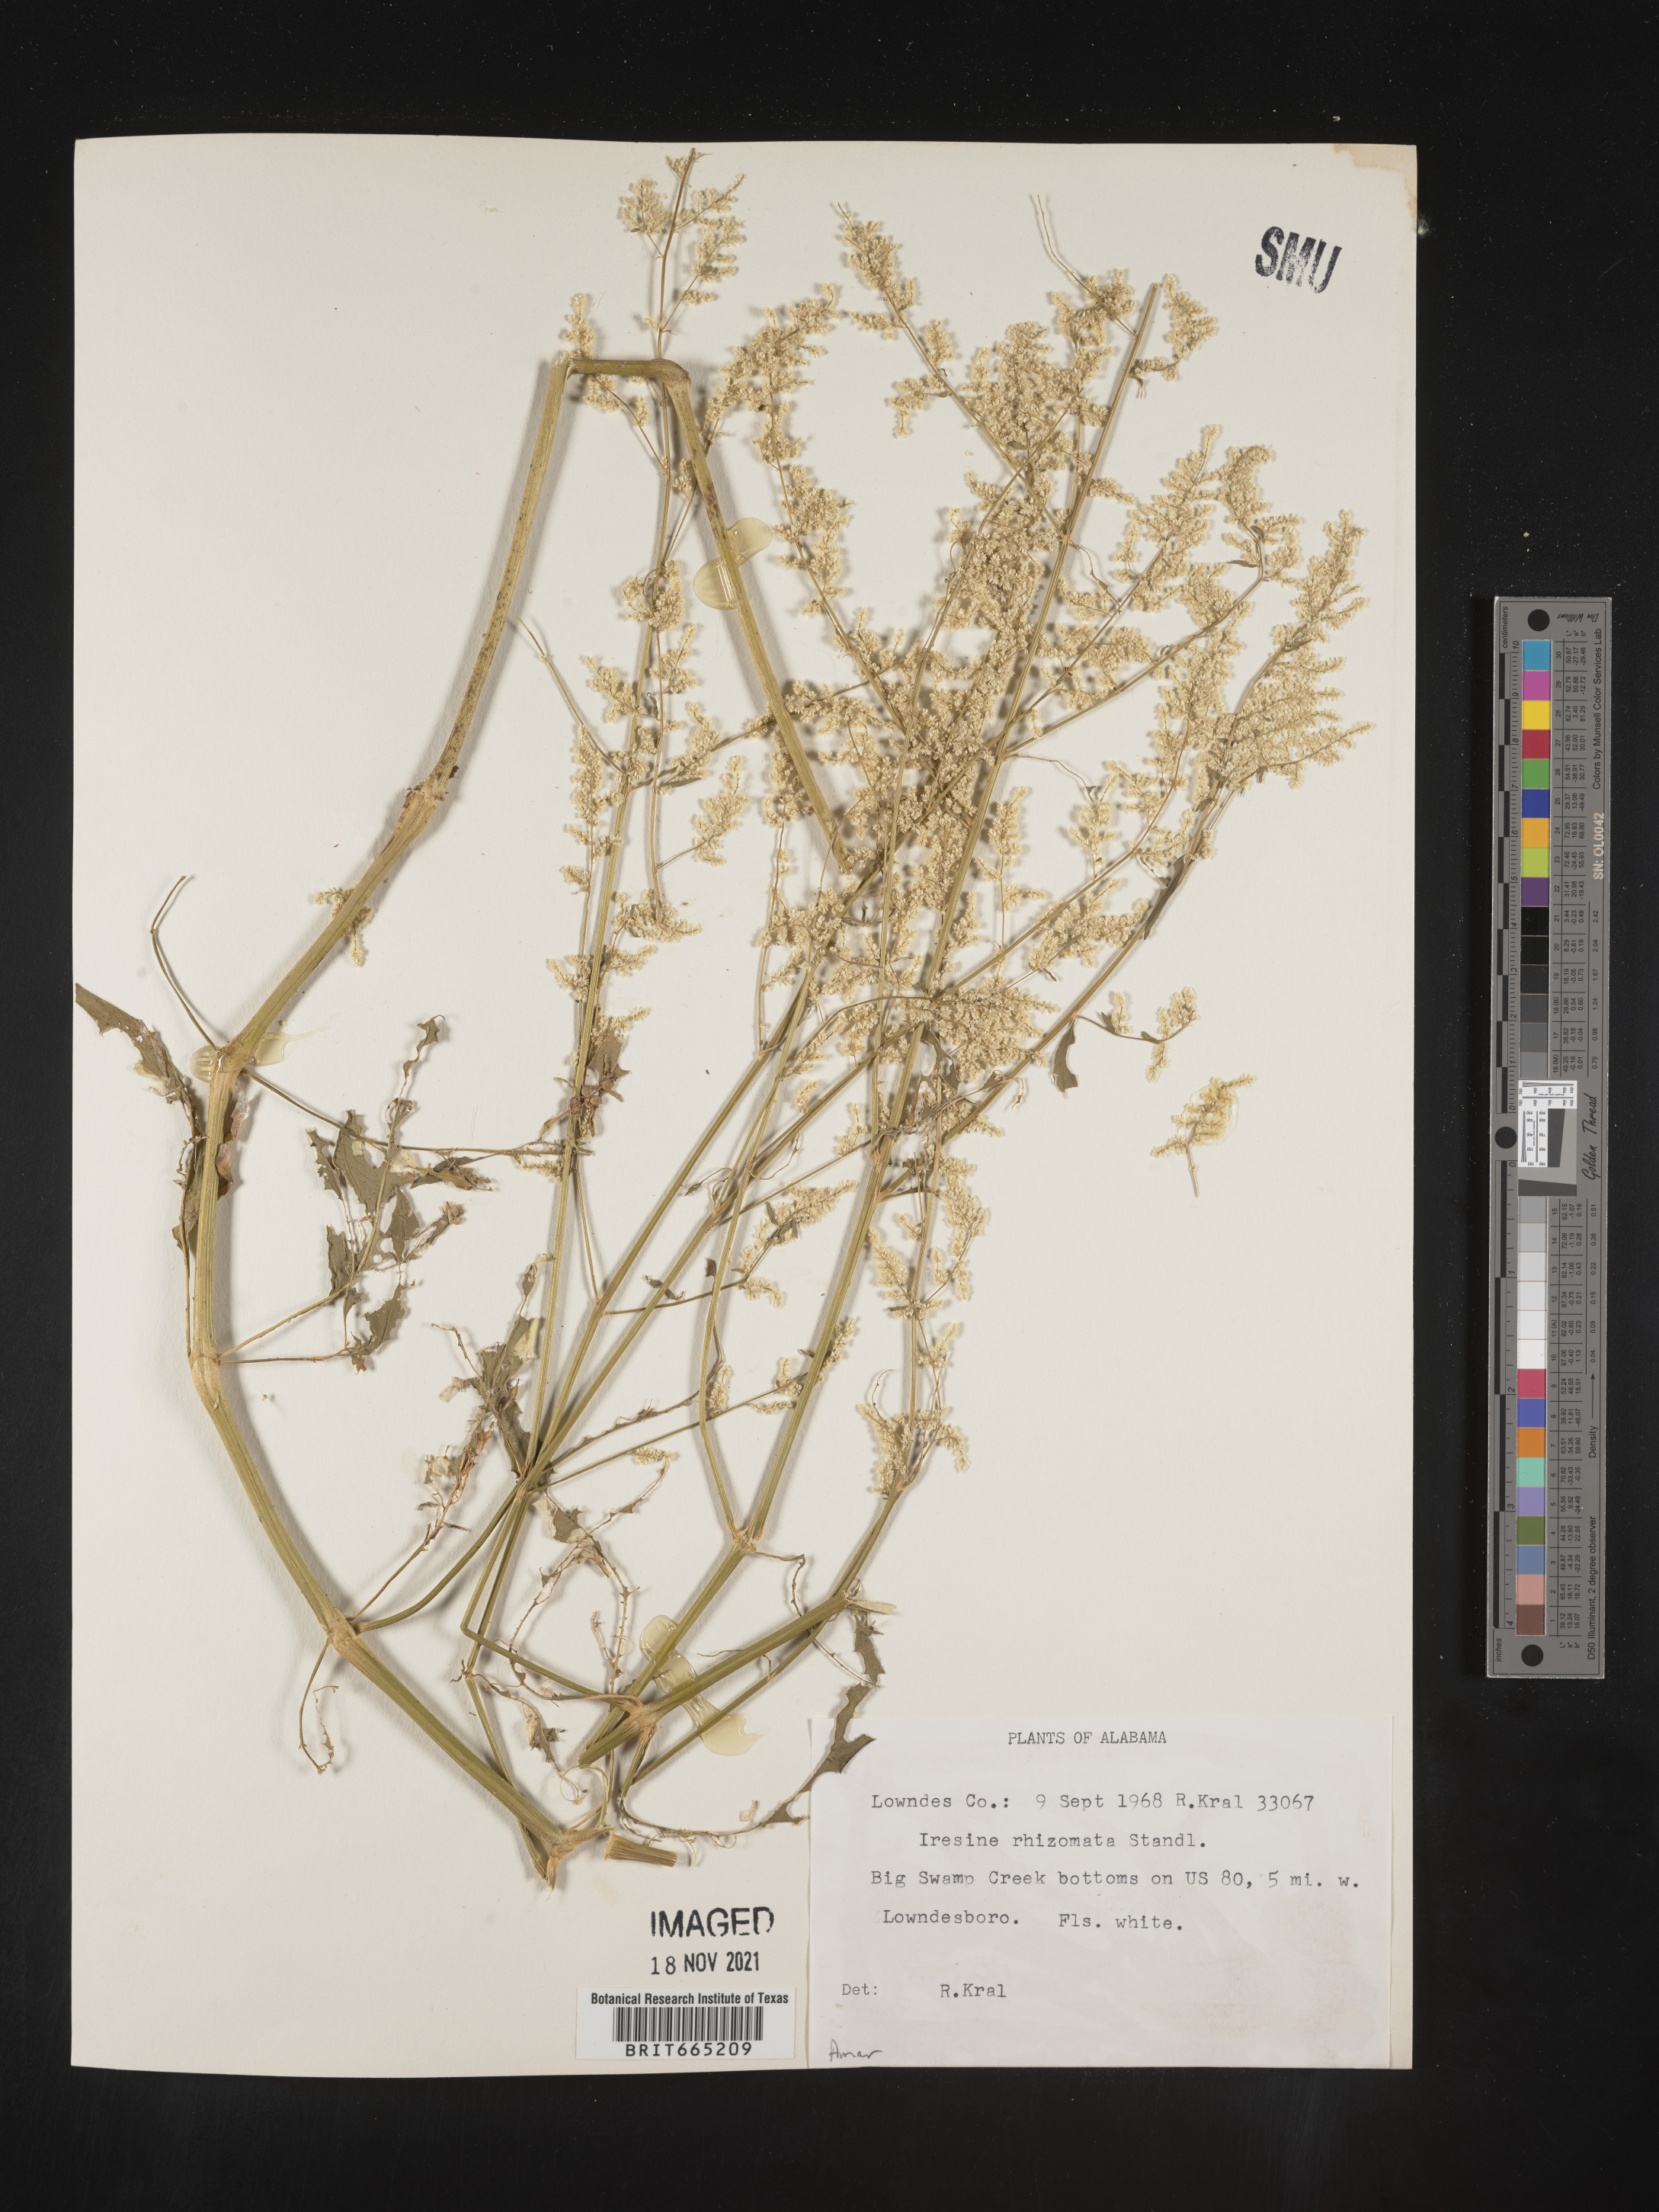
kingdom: Plantae
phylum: Tracheophyta
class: Magnoliopsida
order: Caryophyllales
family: Amaranthaceae
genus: Iresine
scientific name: Iresine rhizomatosa
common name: Juda's-bush
